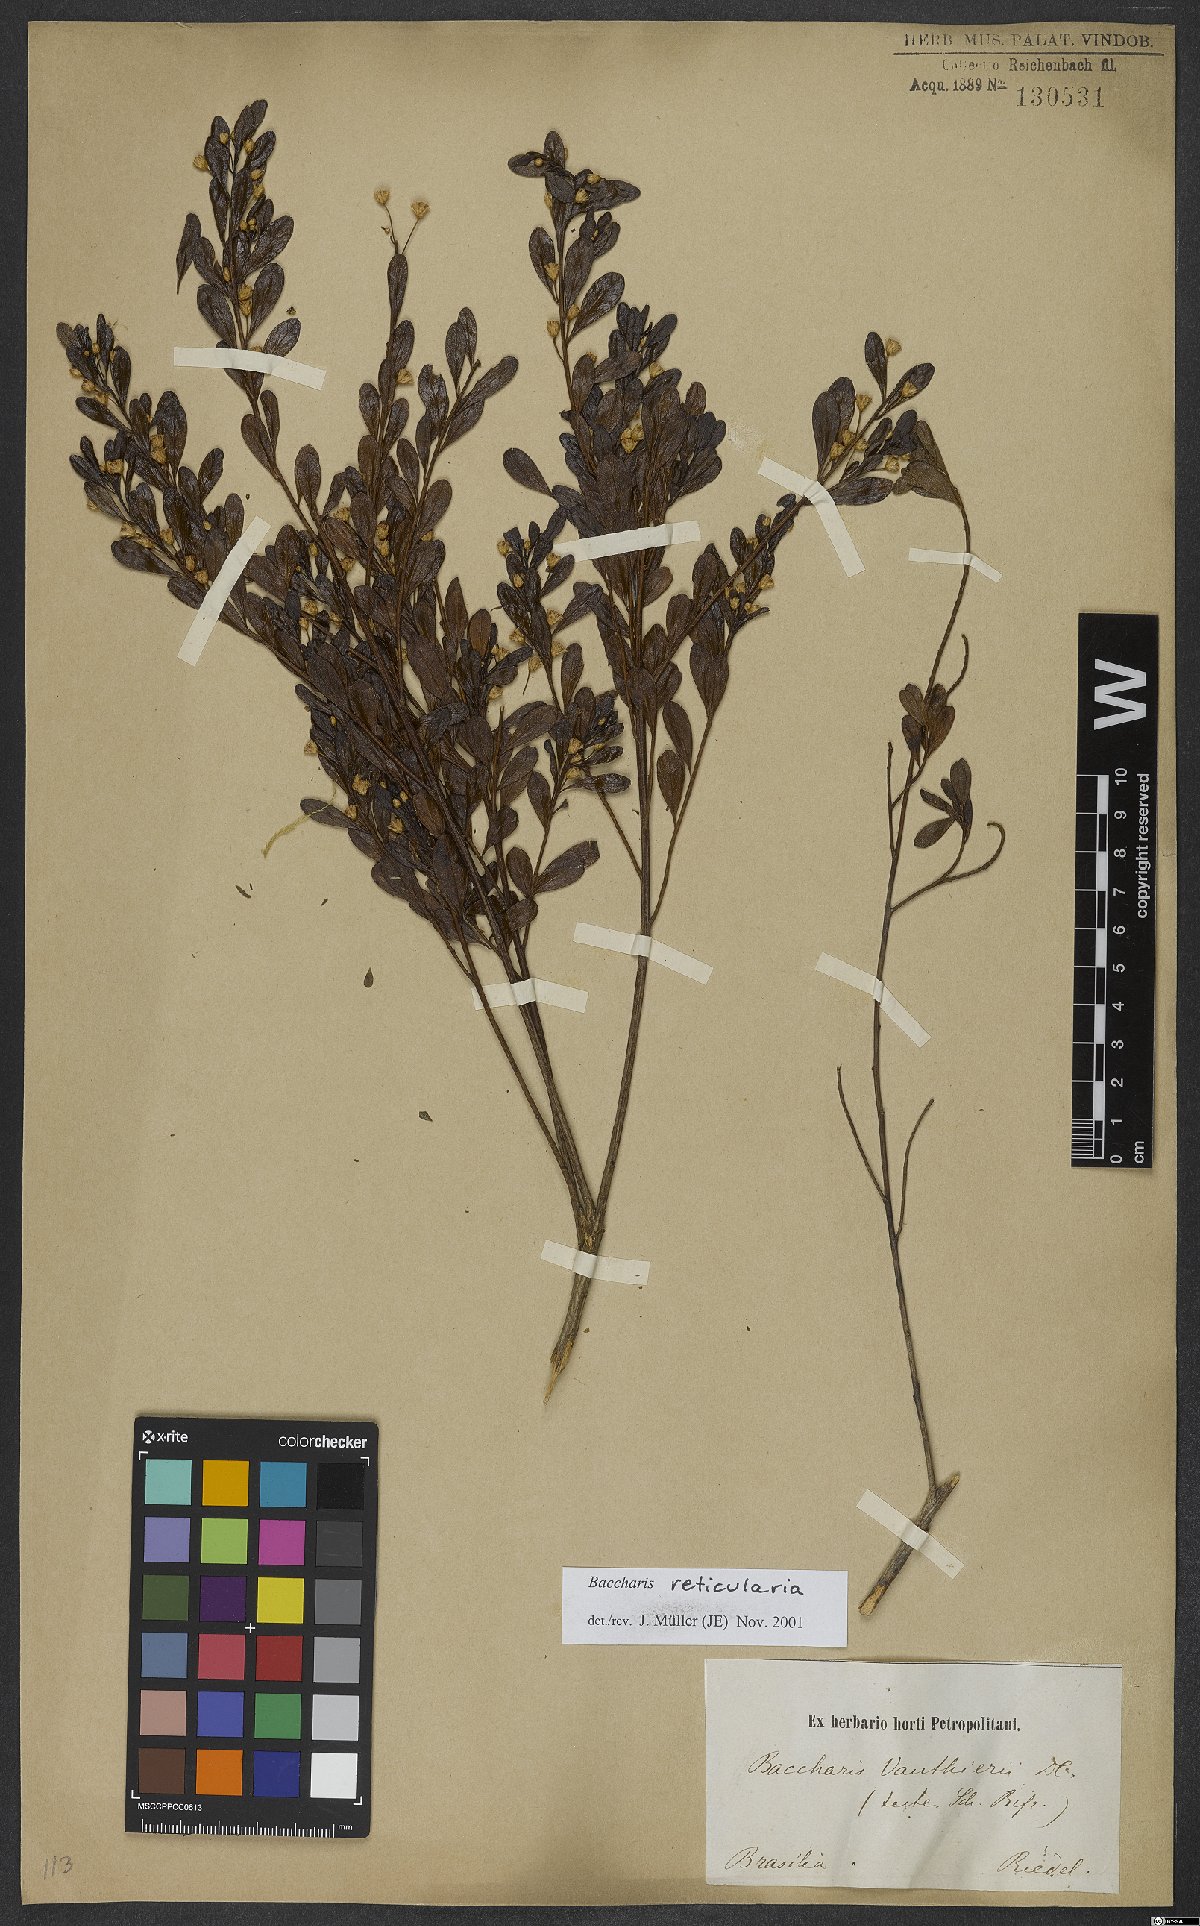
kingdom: Plantae
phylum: Tracheophyta
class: Magnoliopsida
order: Asterales
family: Asteraceae
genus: Baccharis
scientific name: Baccharis reticularia
